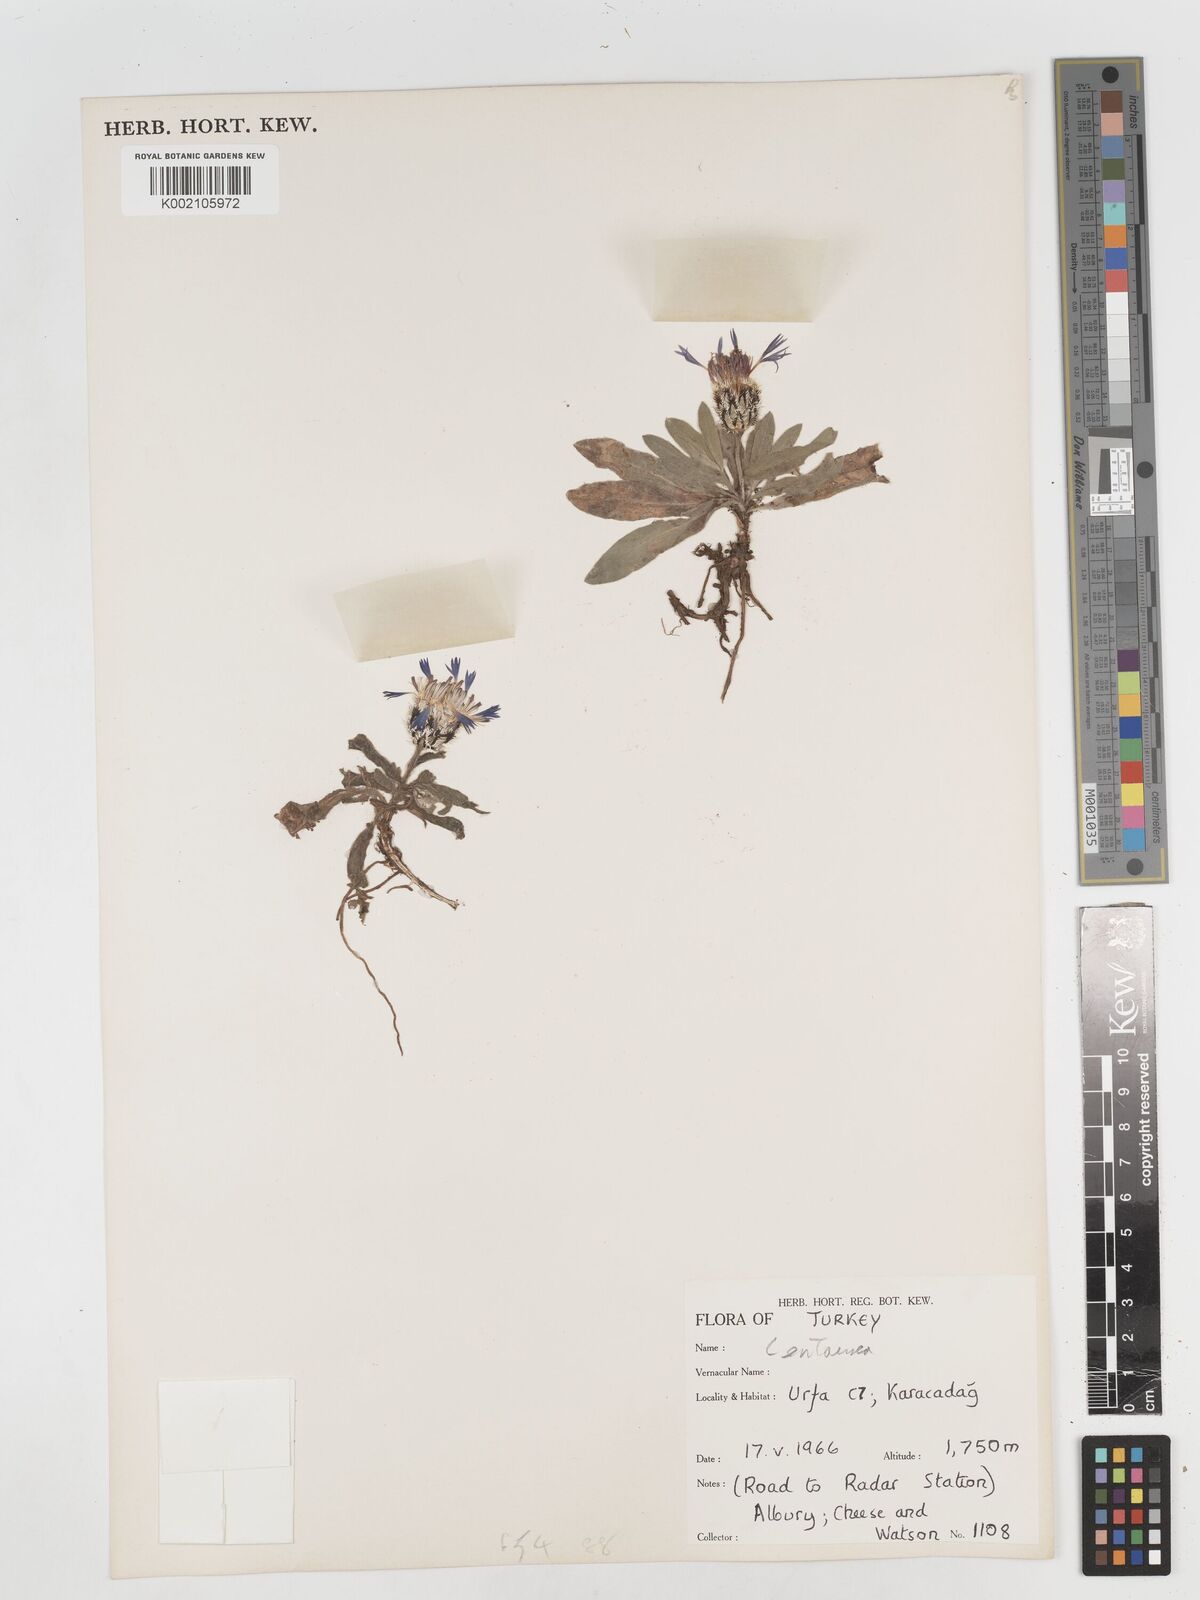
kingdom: Plantae
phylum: Tracheophyta
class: Magnoliopsida
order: Asterales
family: Asteraceae
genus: Centaurea
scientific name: Centaurea
